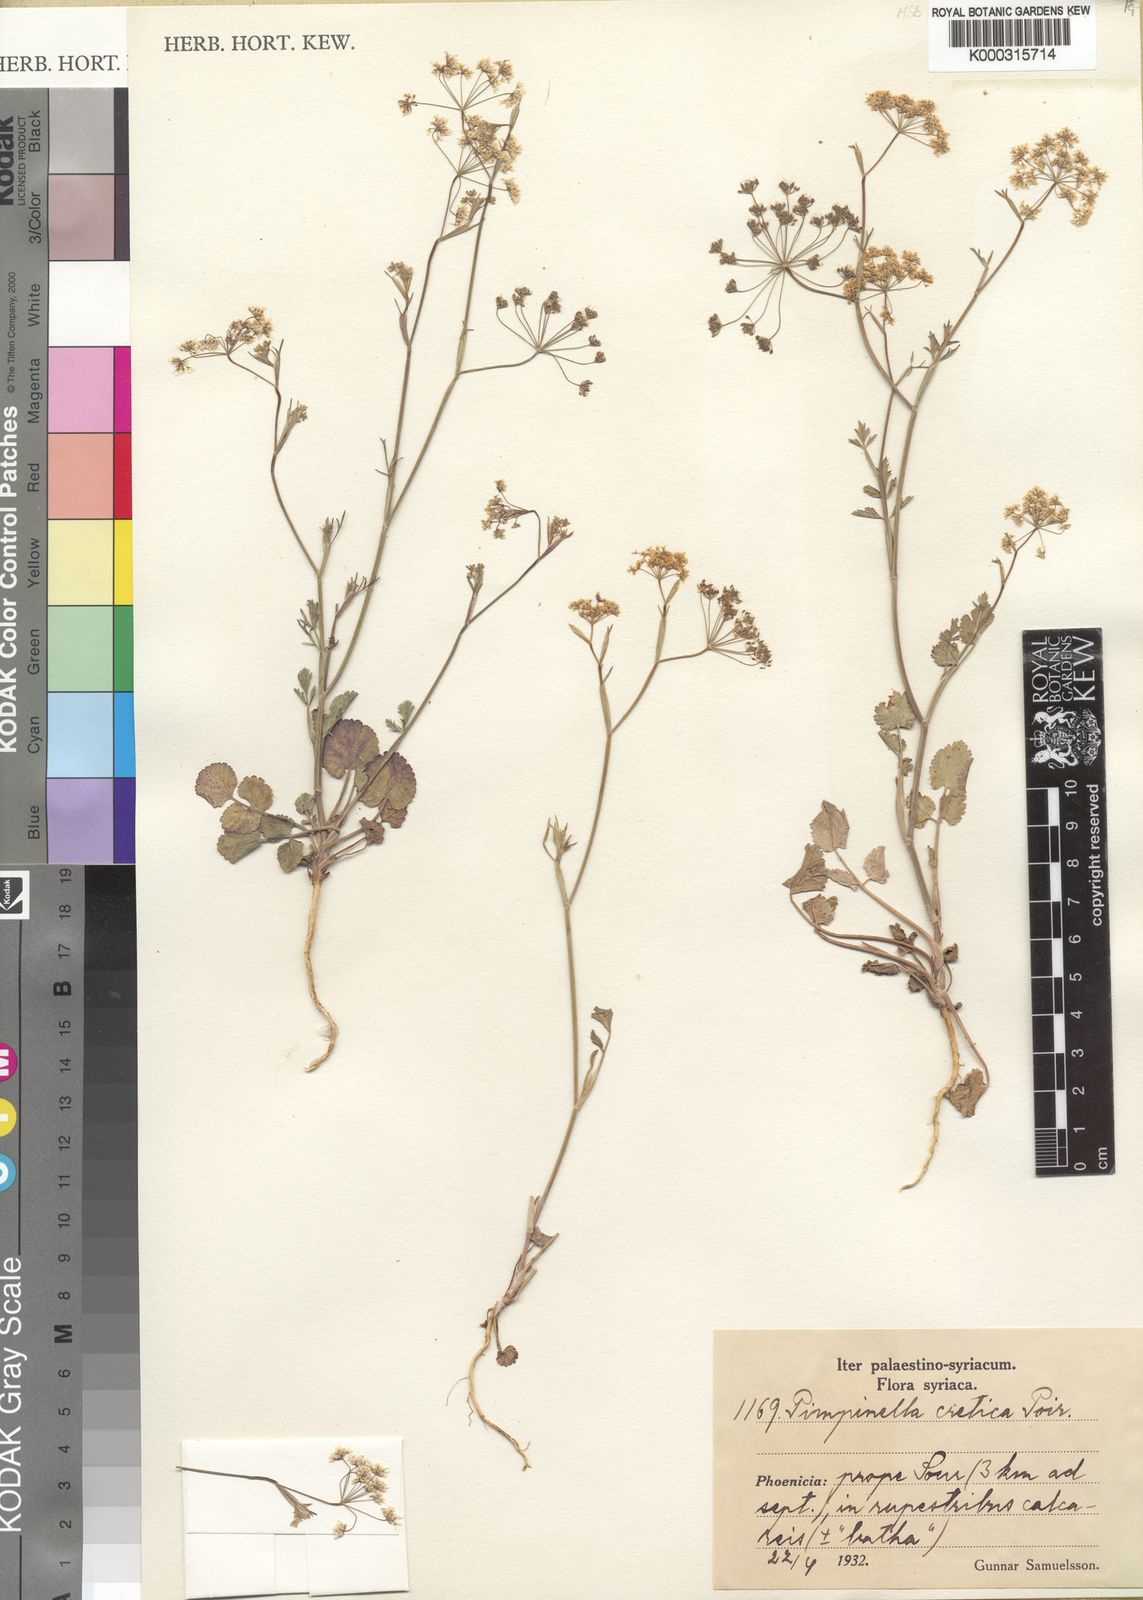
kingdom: Plantae
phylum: Tracheophyta
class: Magnoliopsida
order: Apiales
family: Apiaceae
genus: Pimpinella
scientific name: Pimpinella cretica
